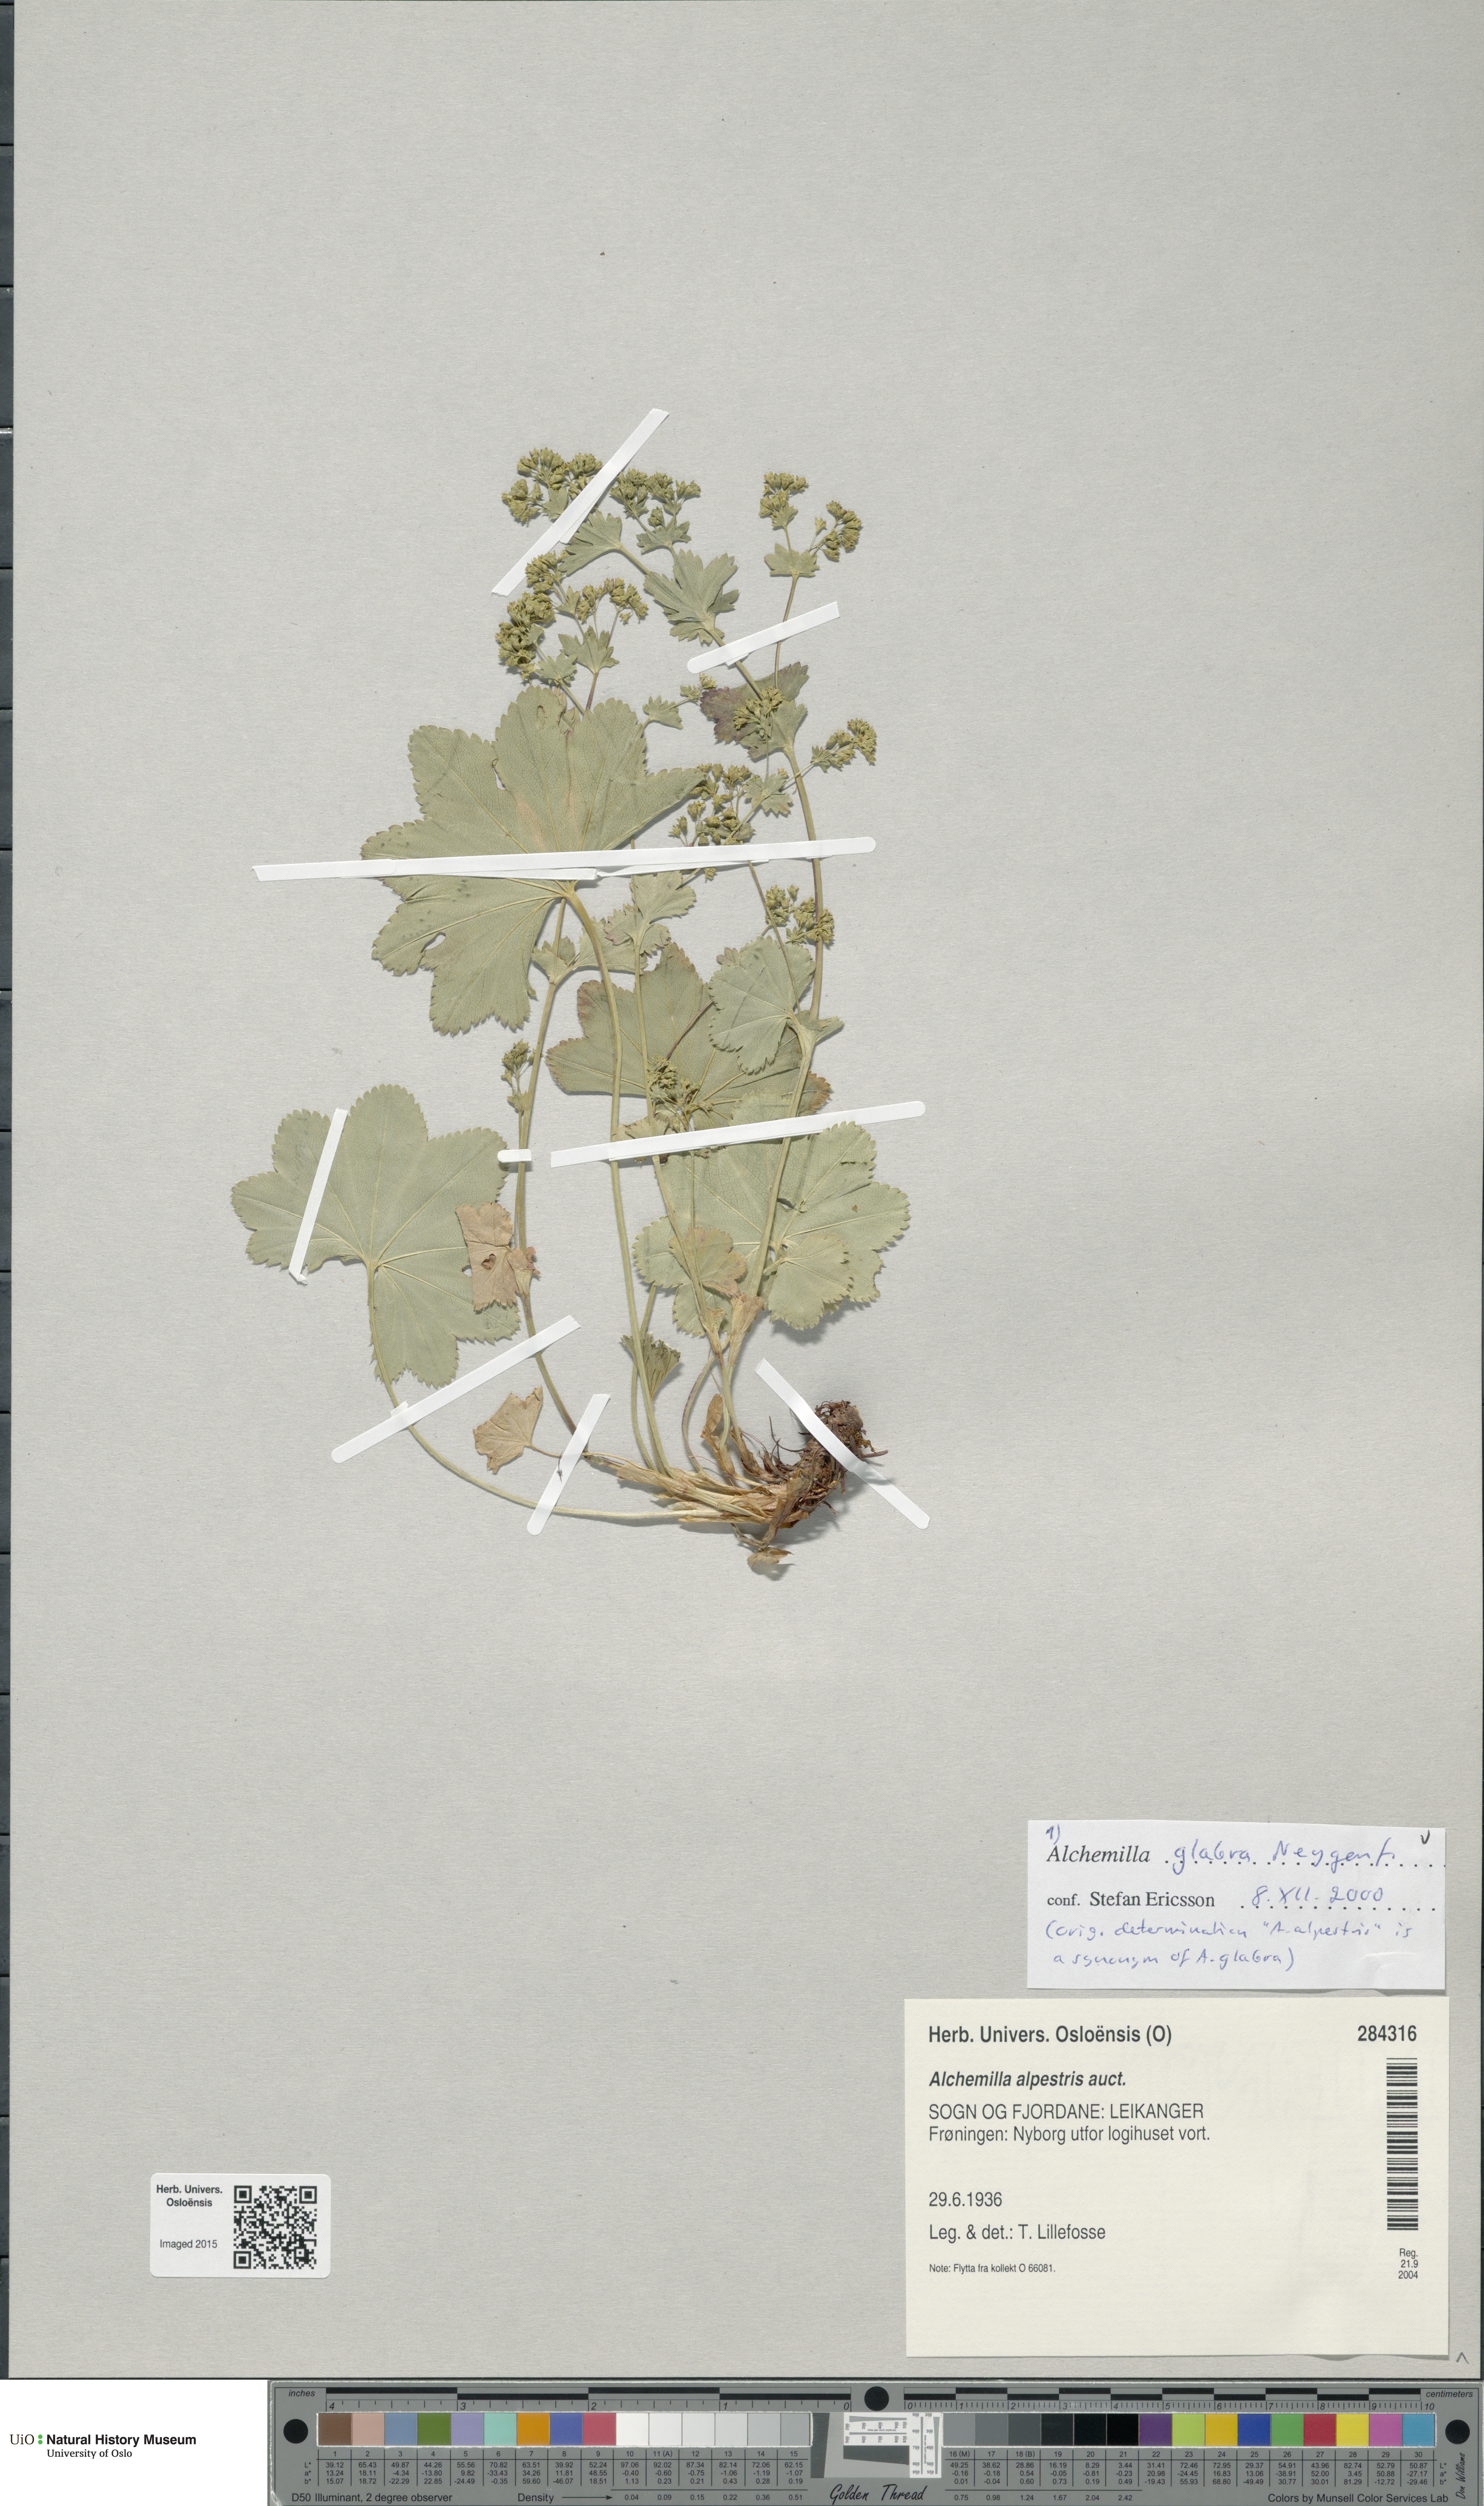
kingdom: Plantae
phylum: Tracheophyta
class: Magnoliopsida
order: Rosales
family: Rosaceae
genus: Alchemilla
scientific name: Alchemilla glabra
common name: Smooth lady's-mantle
